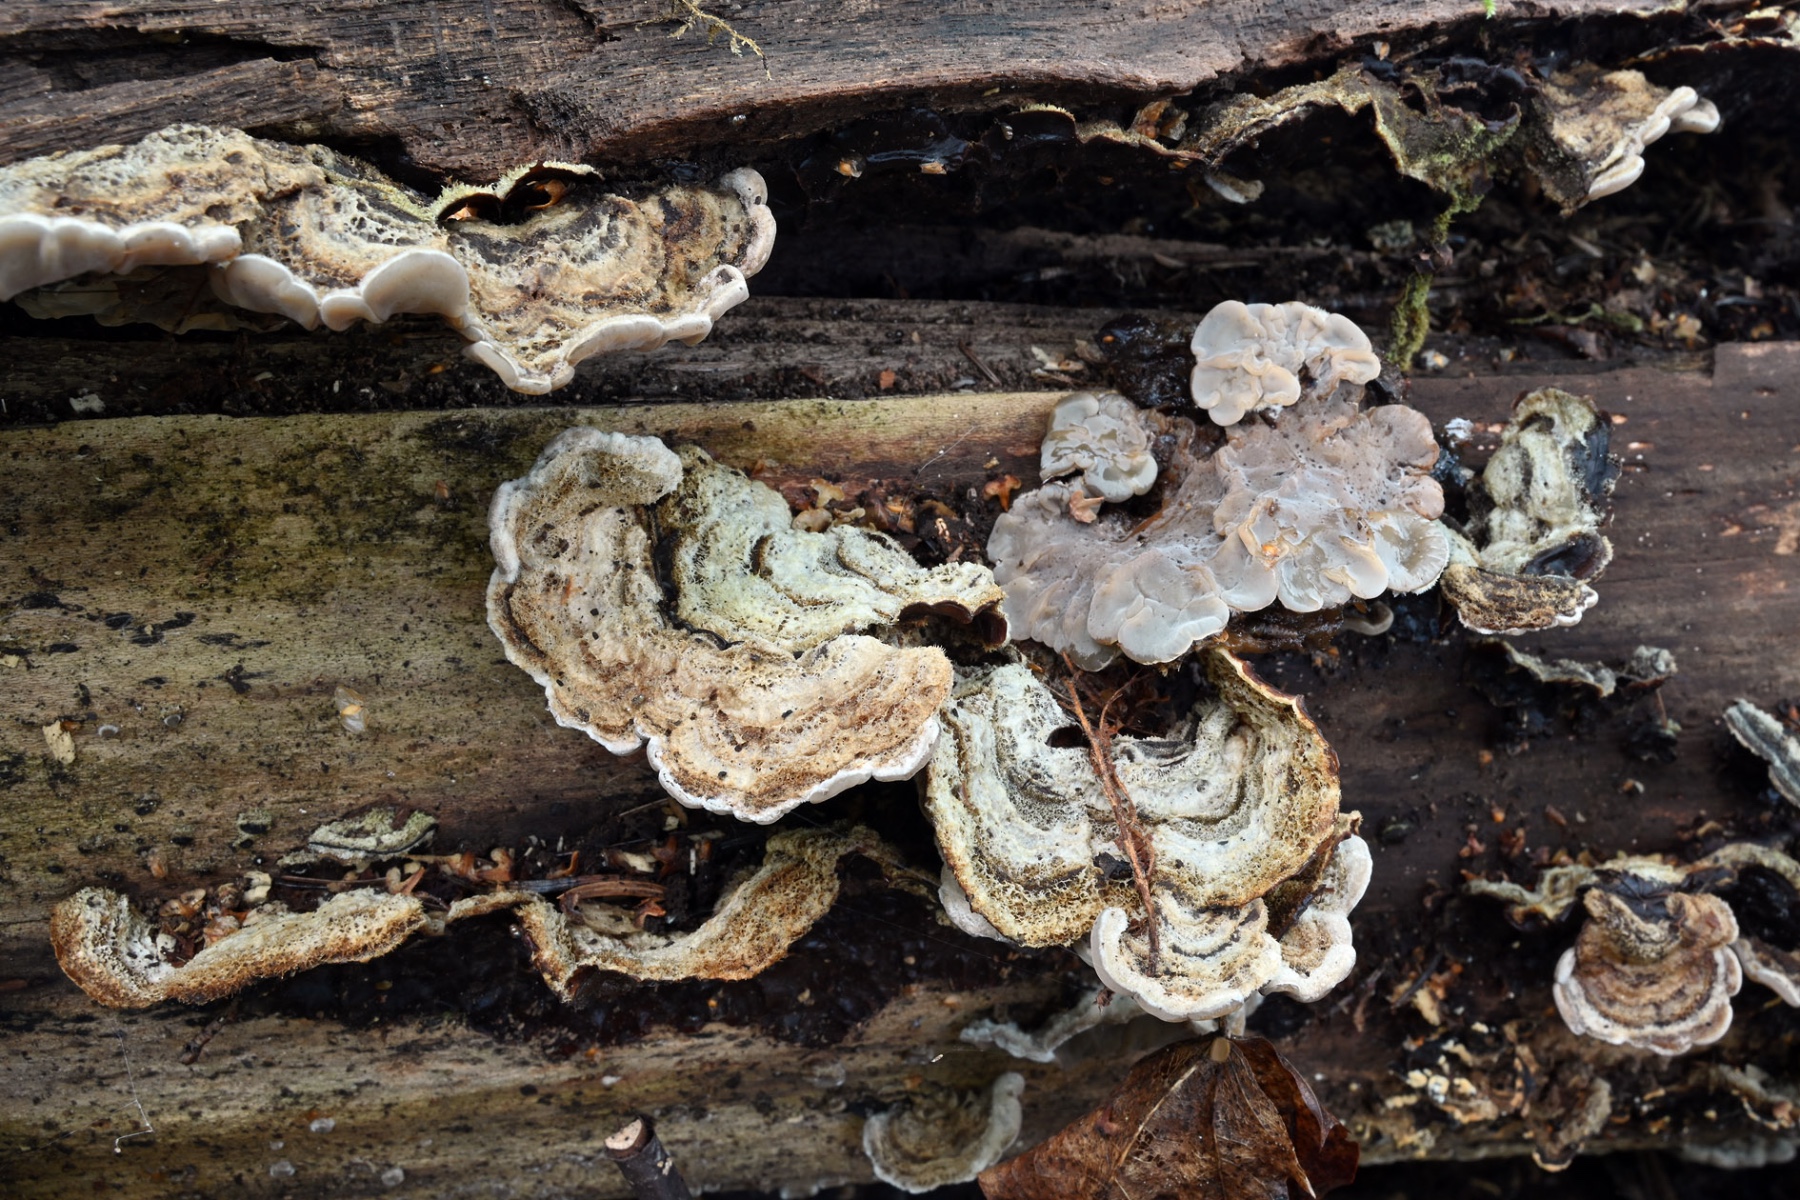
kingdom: Fungi
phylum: Basidiomycota
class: Agaricomycetes
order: Auriculariales
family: Auriculariaceae
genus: Auricularia
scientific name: Auricularia mesenterica
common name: håret judasøre
